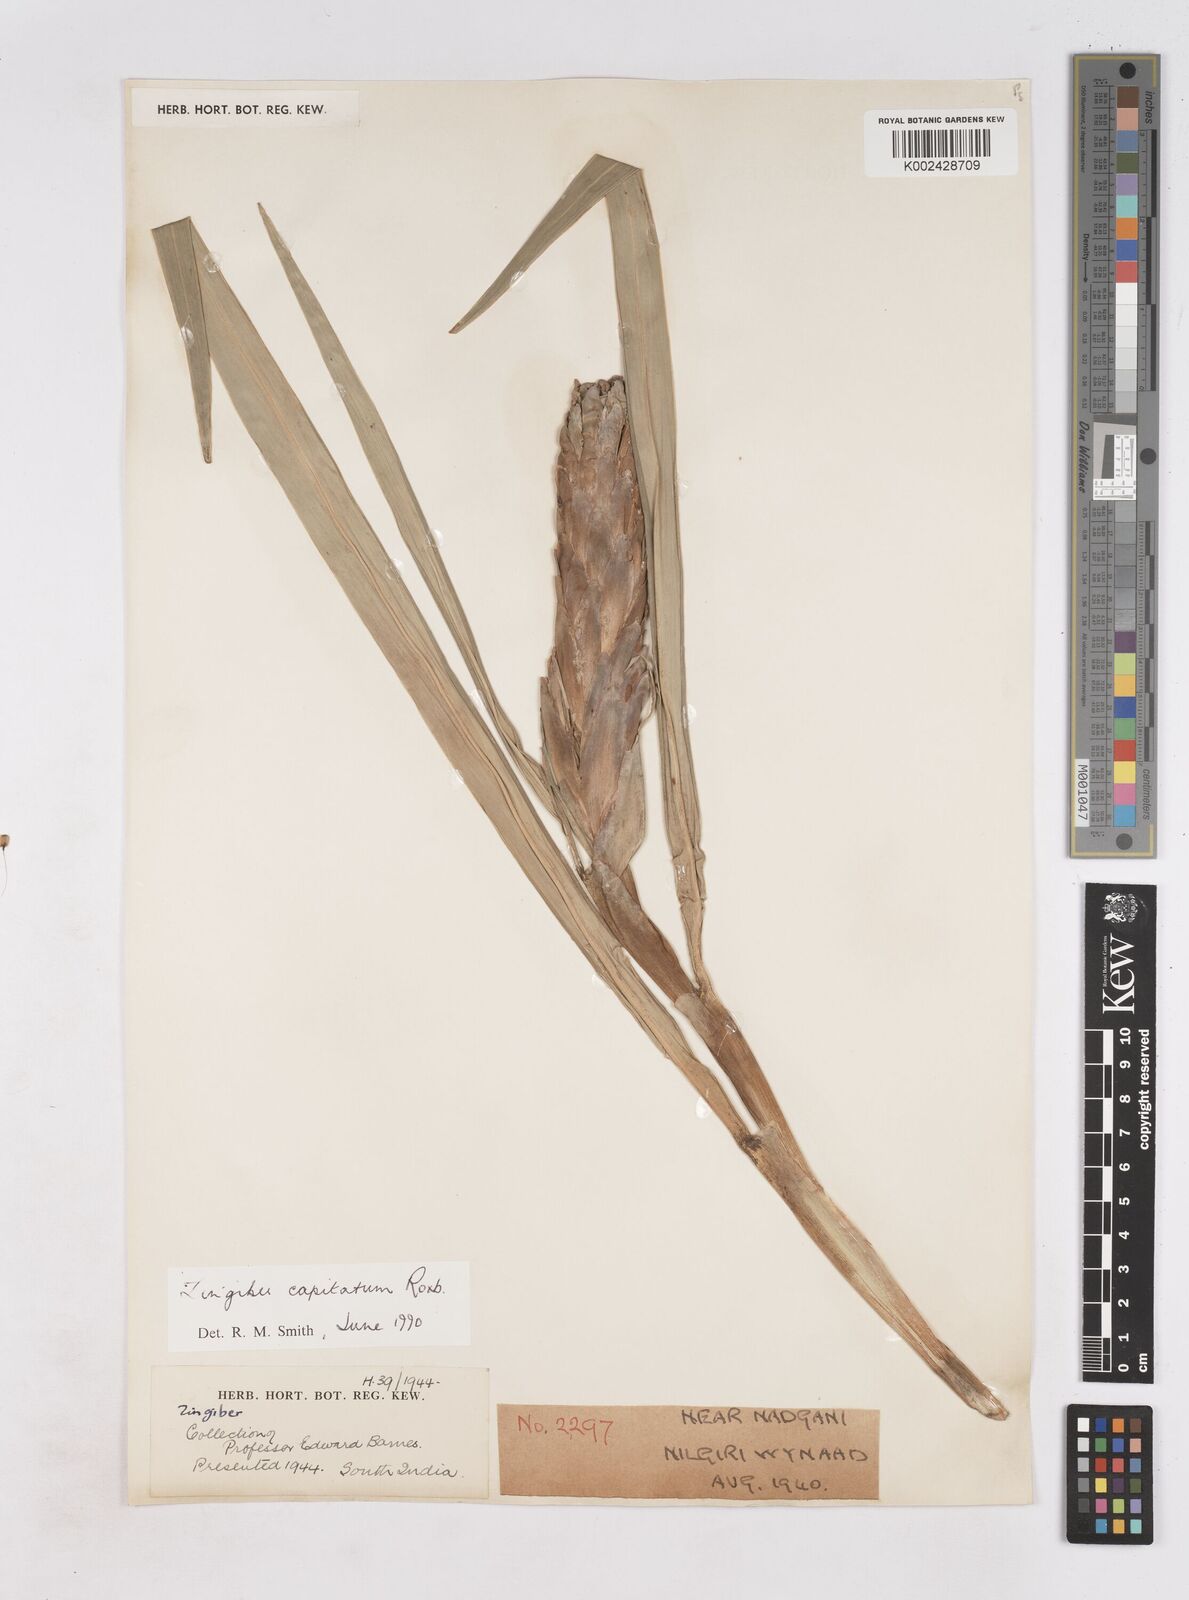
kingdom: Plantae
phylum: Tracheophyta
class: Liliopsida
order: Zingiberales
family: Zingiberaceae
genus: Zingiber
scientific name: Zingiber
